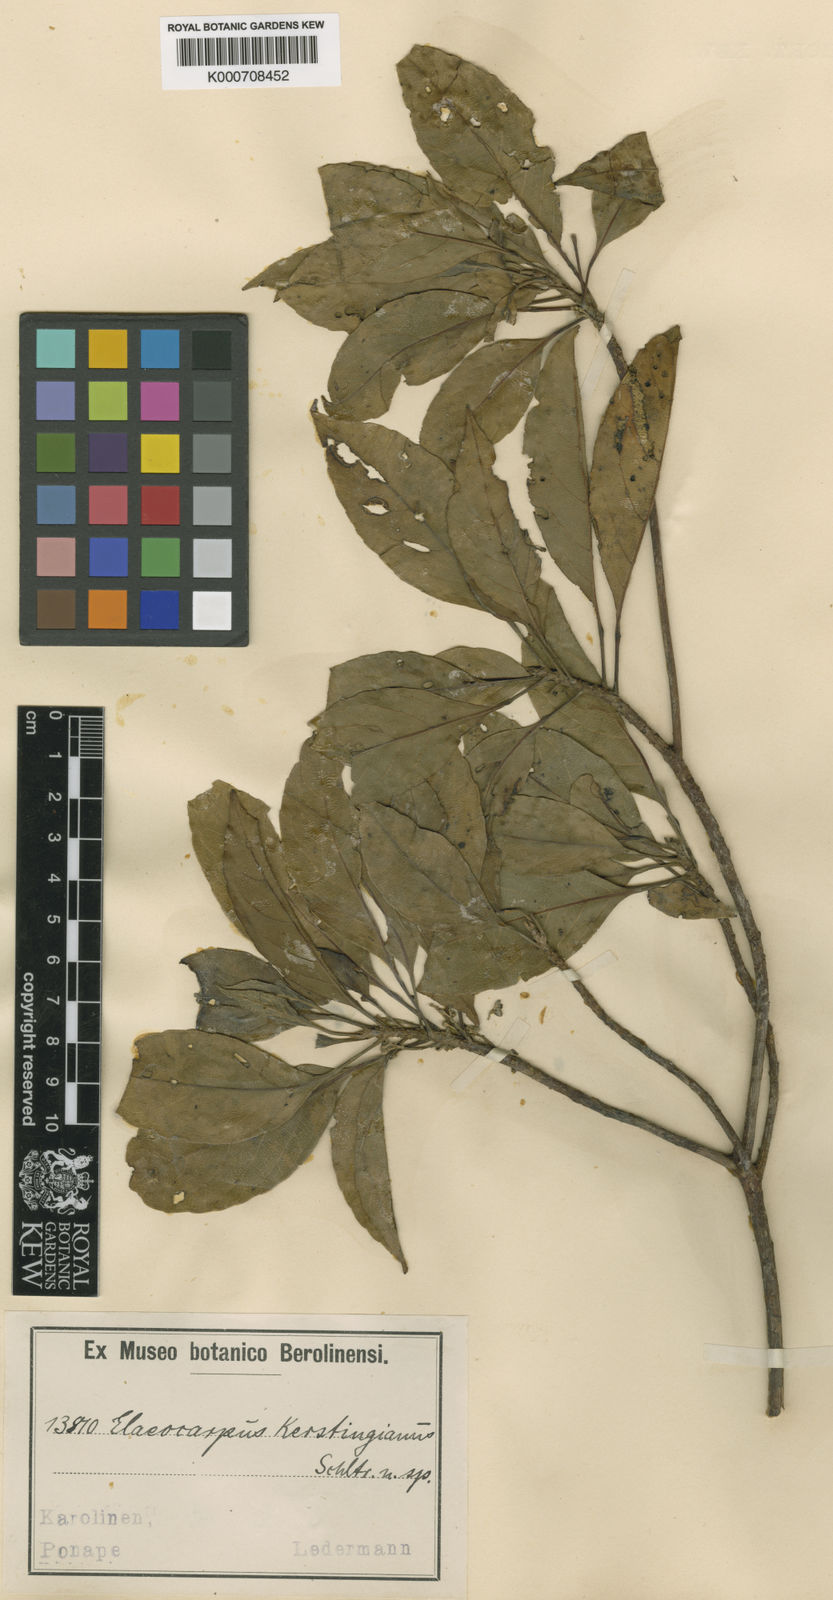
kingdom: Plantae
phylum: Tracheophyta
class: Magnoliopsida
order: Oxalidales
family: Elaeocarpaceae
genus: Elaeocarpus
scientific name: Elaeocarpus kerstingianus
